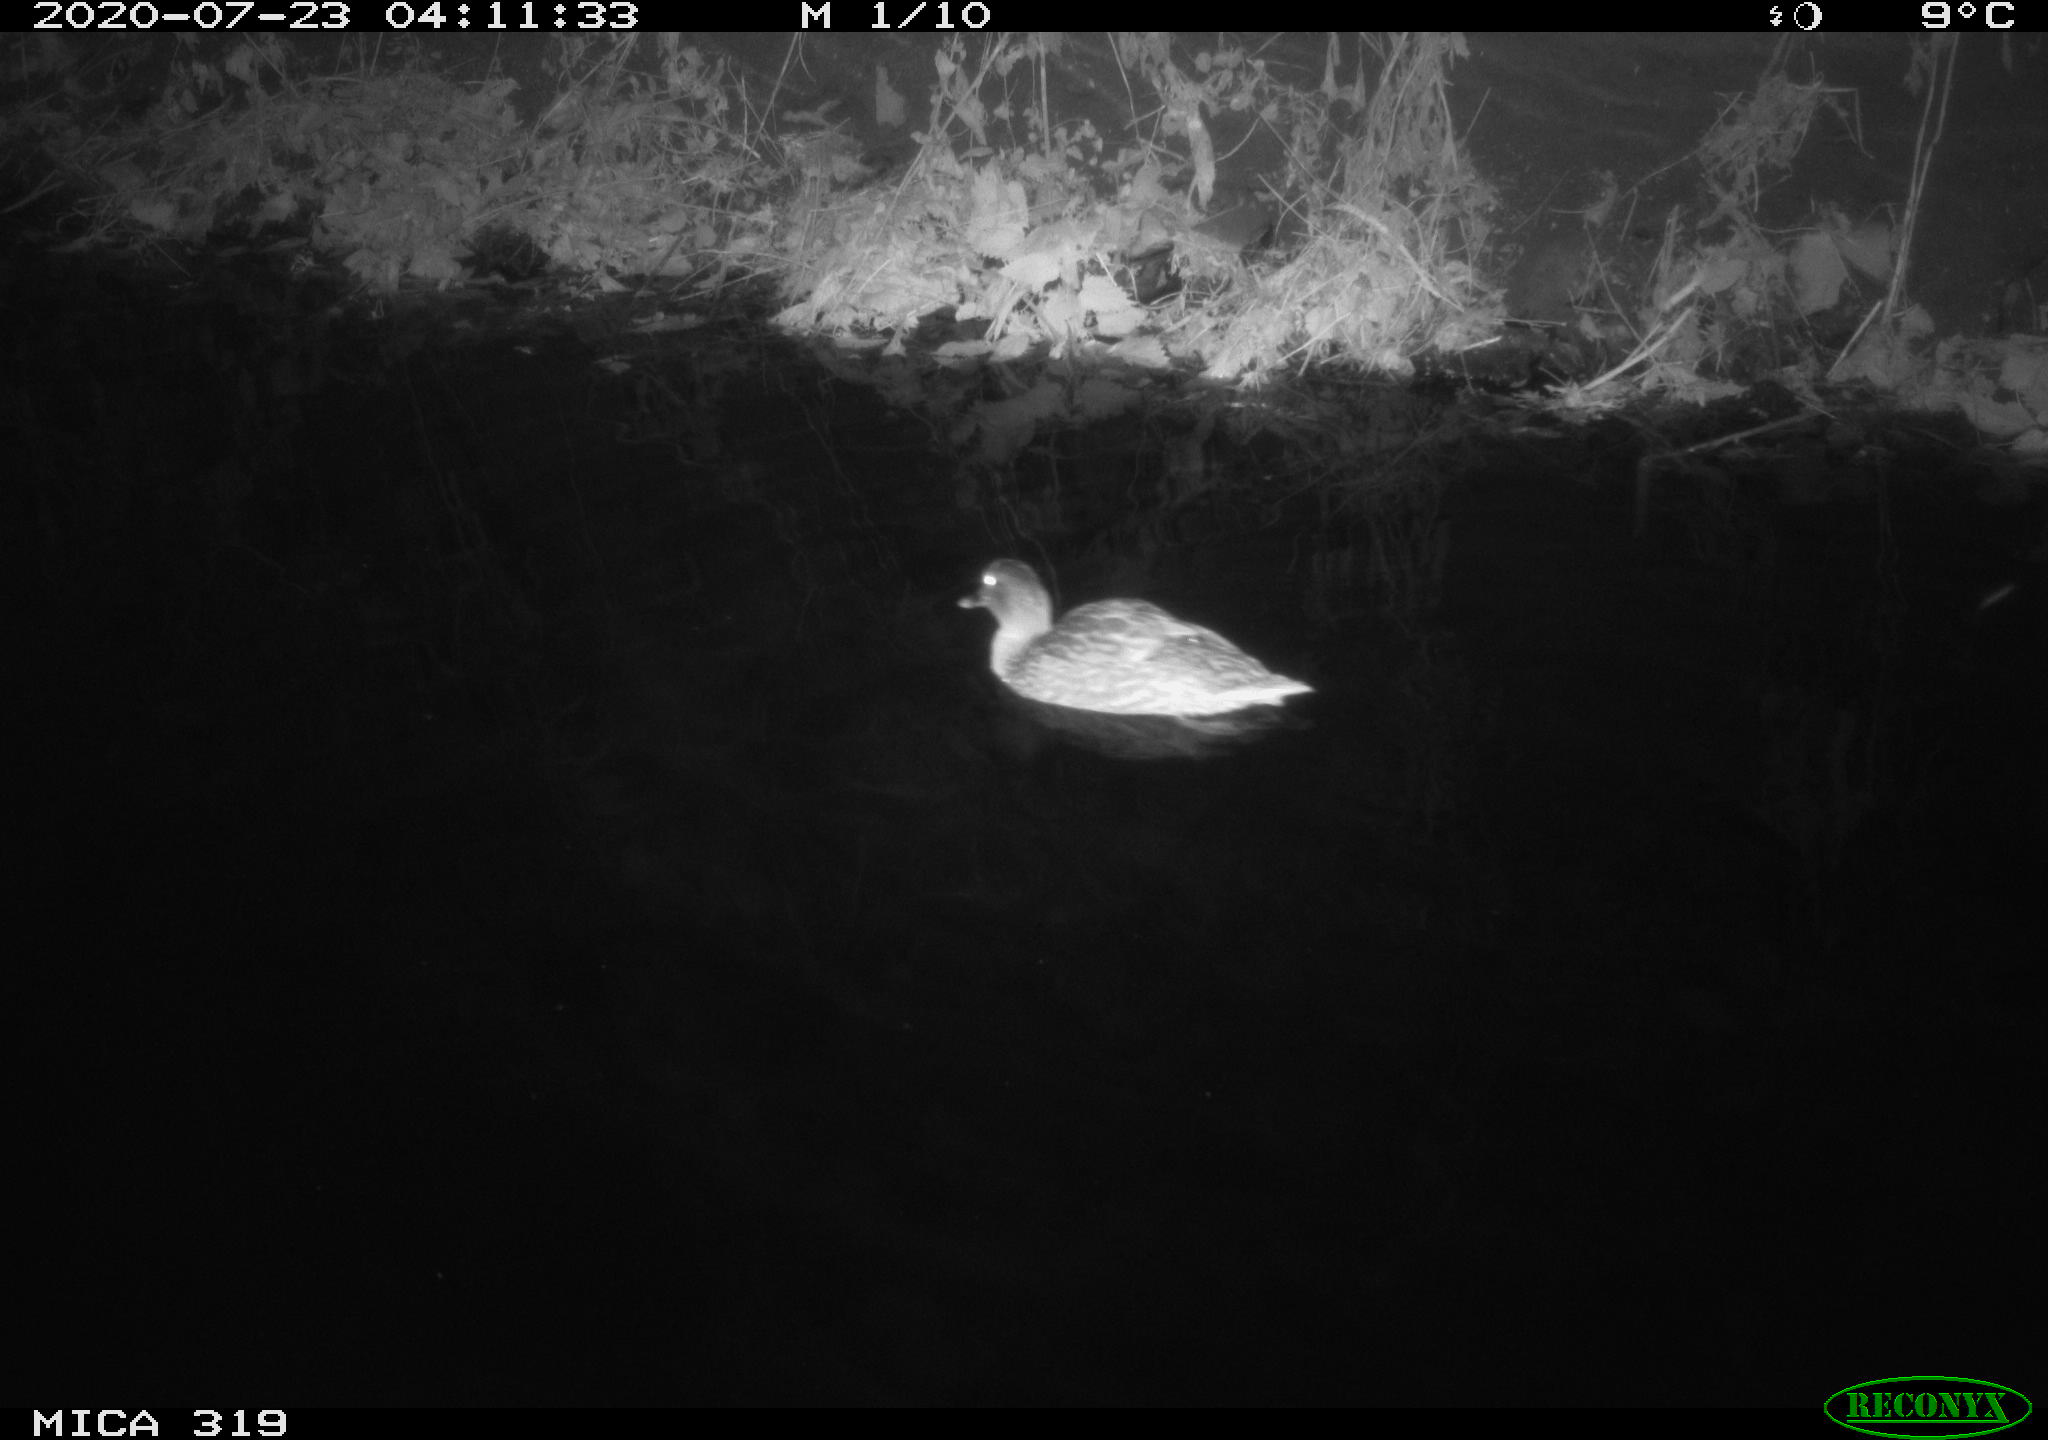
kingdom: Animalia
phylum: Chordata
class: Aves
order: Anseriformes
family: Anatidae
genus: Anas
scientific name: Anas platyrhynchos
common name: Mallard
